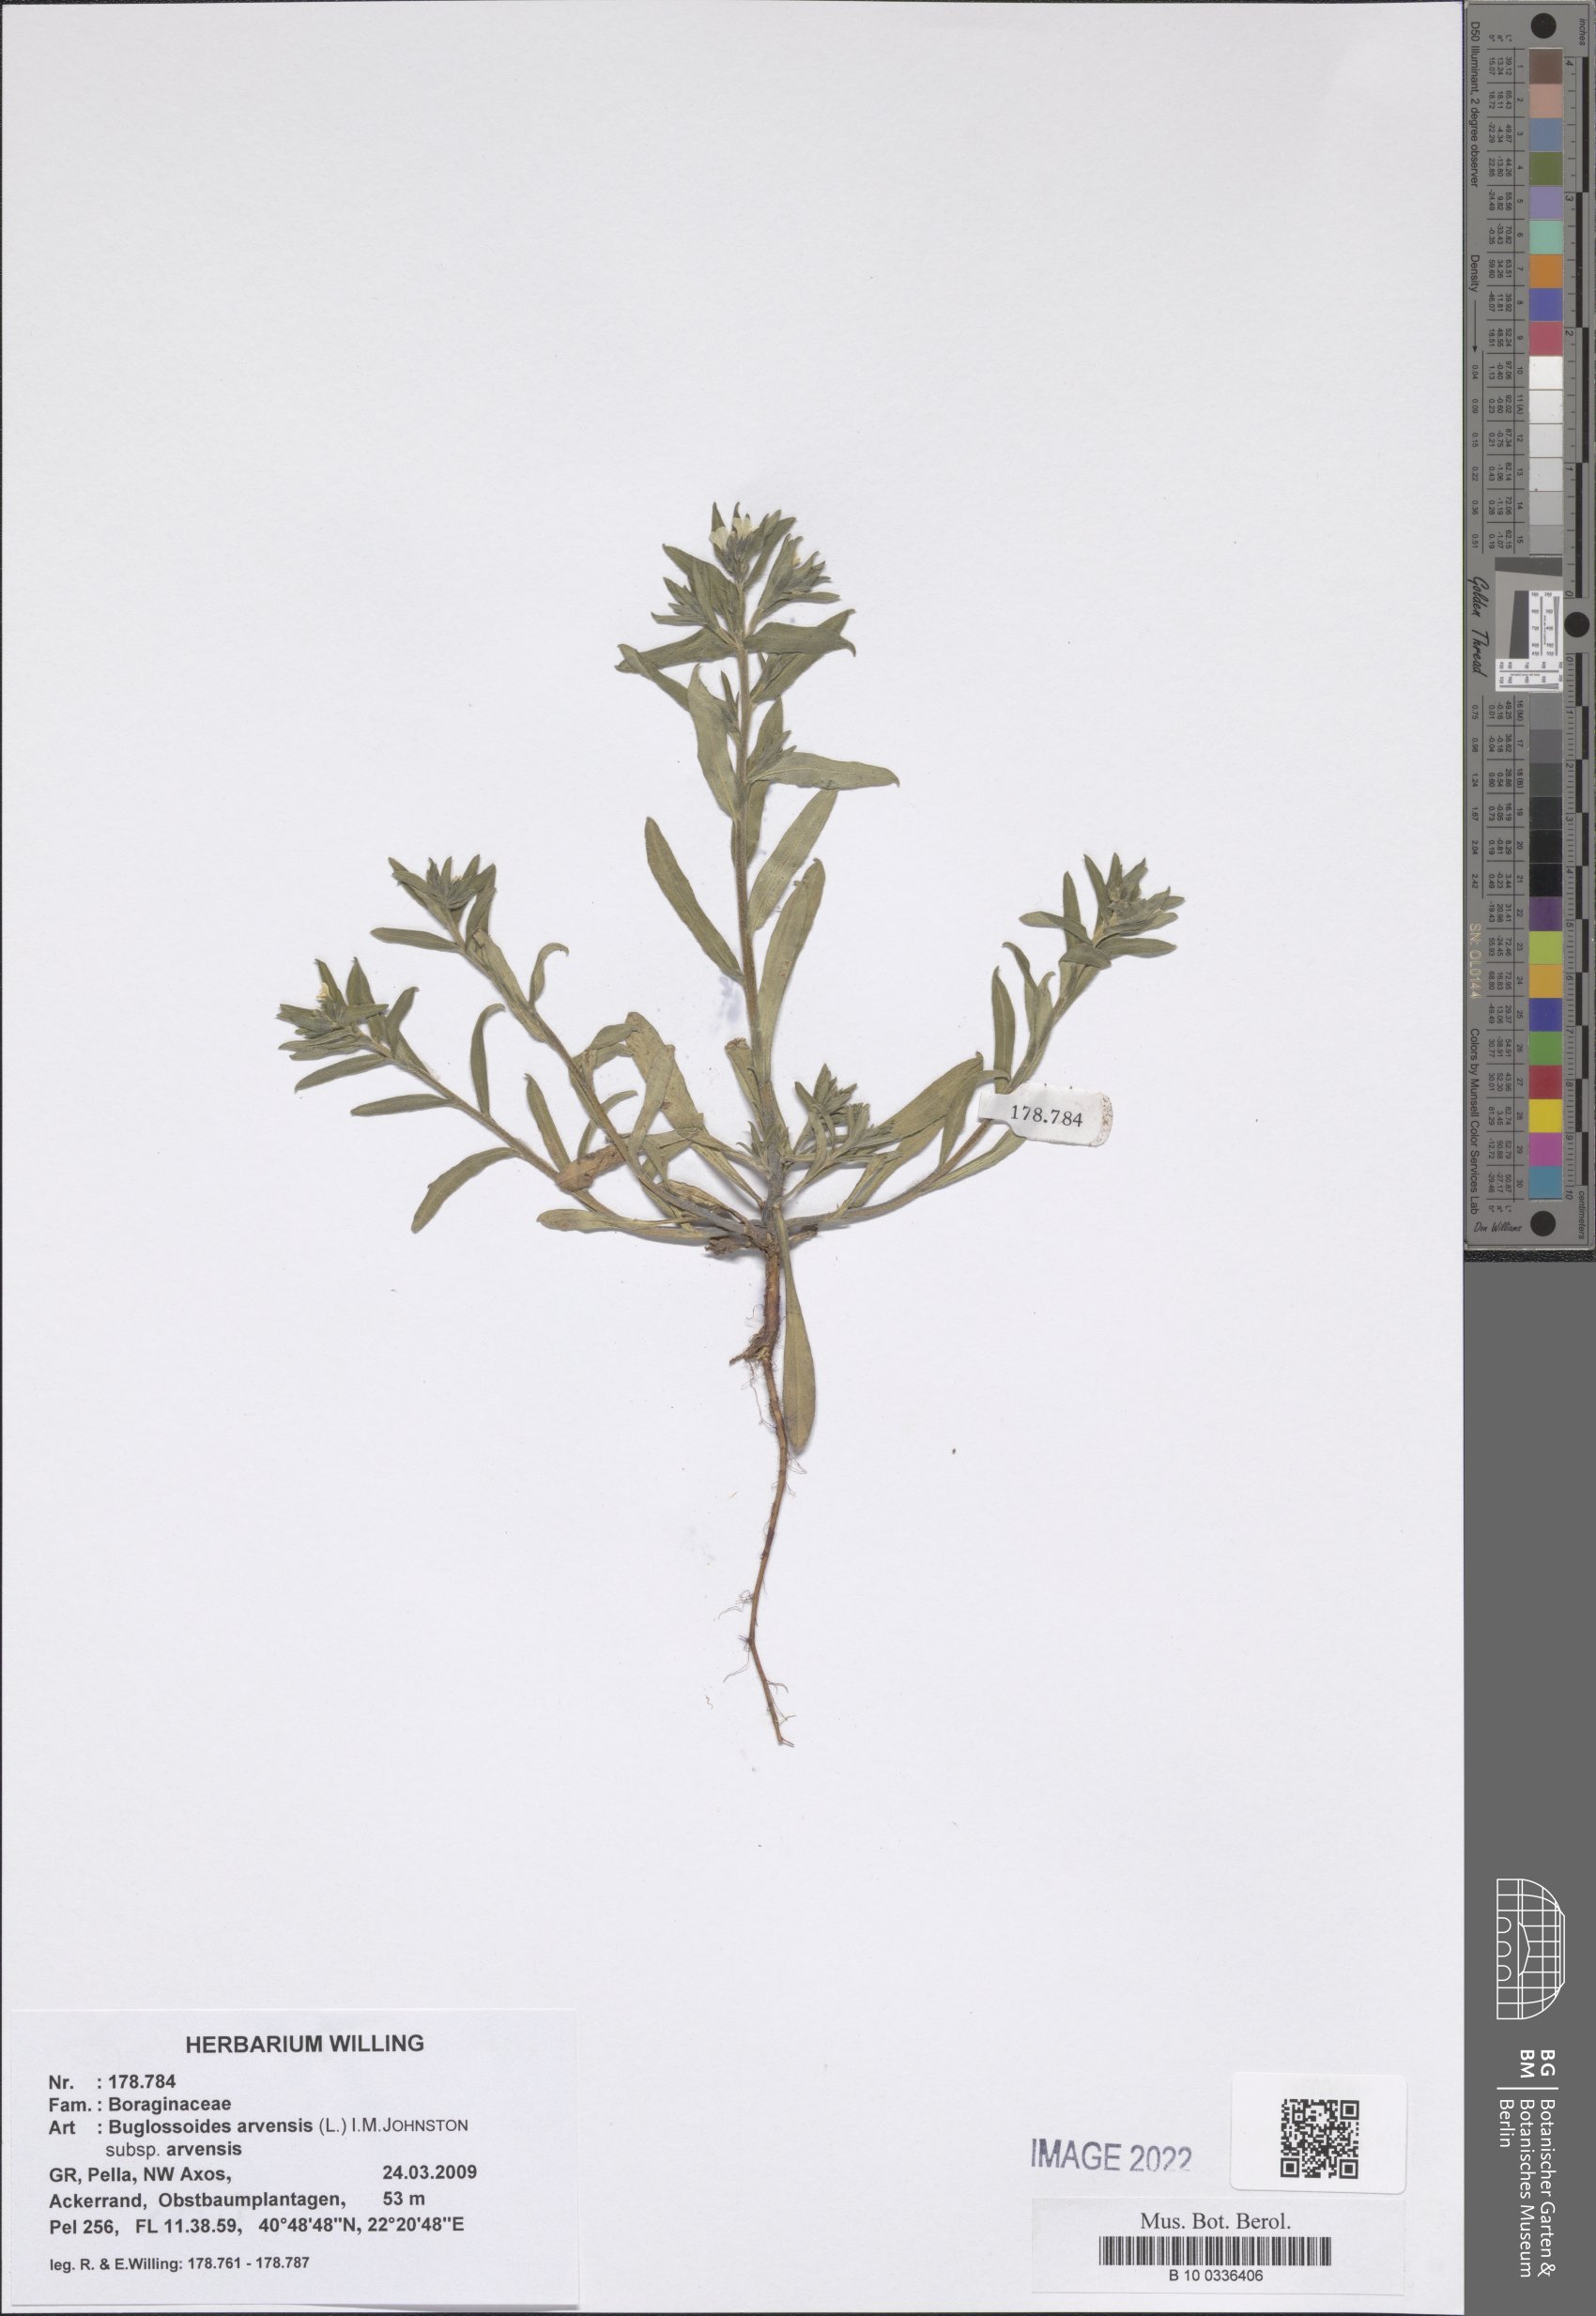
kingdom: Plantae
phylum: Tracheophyta
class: Magnoliopsida
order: Boraginales
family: Boraginaceae
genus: Buglossoides
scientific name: Buglossoides arvensis
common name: Corn gromwell
